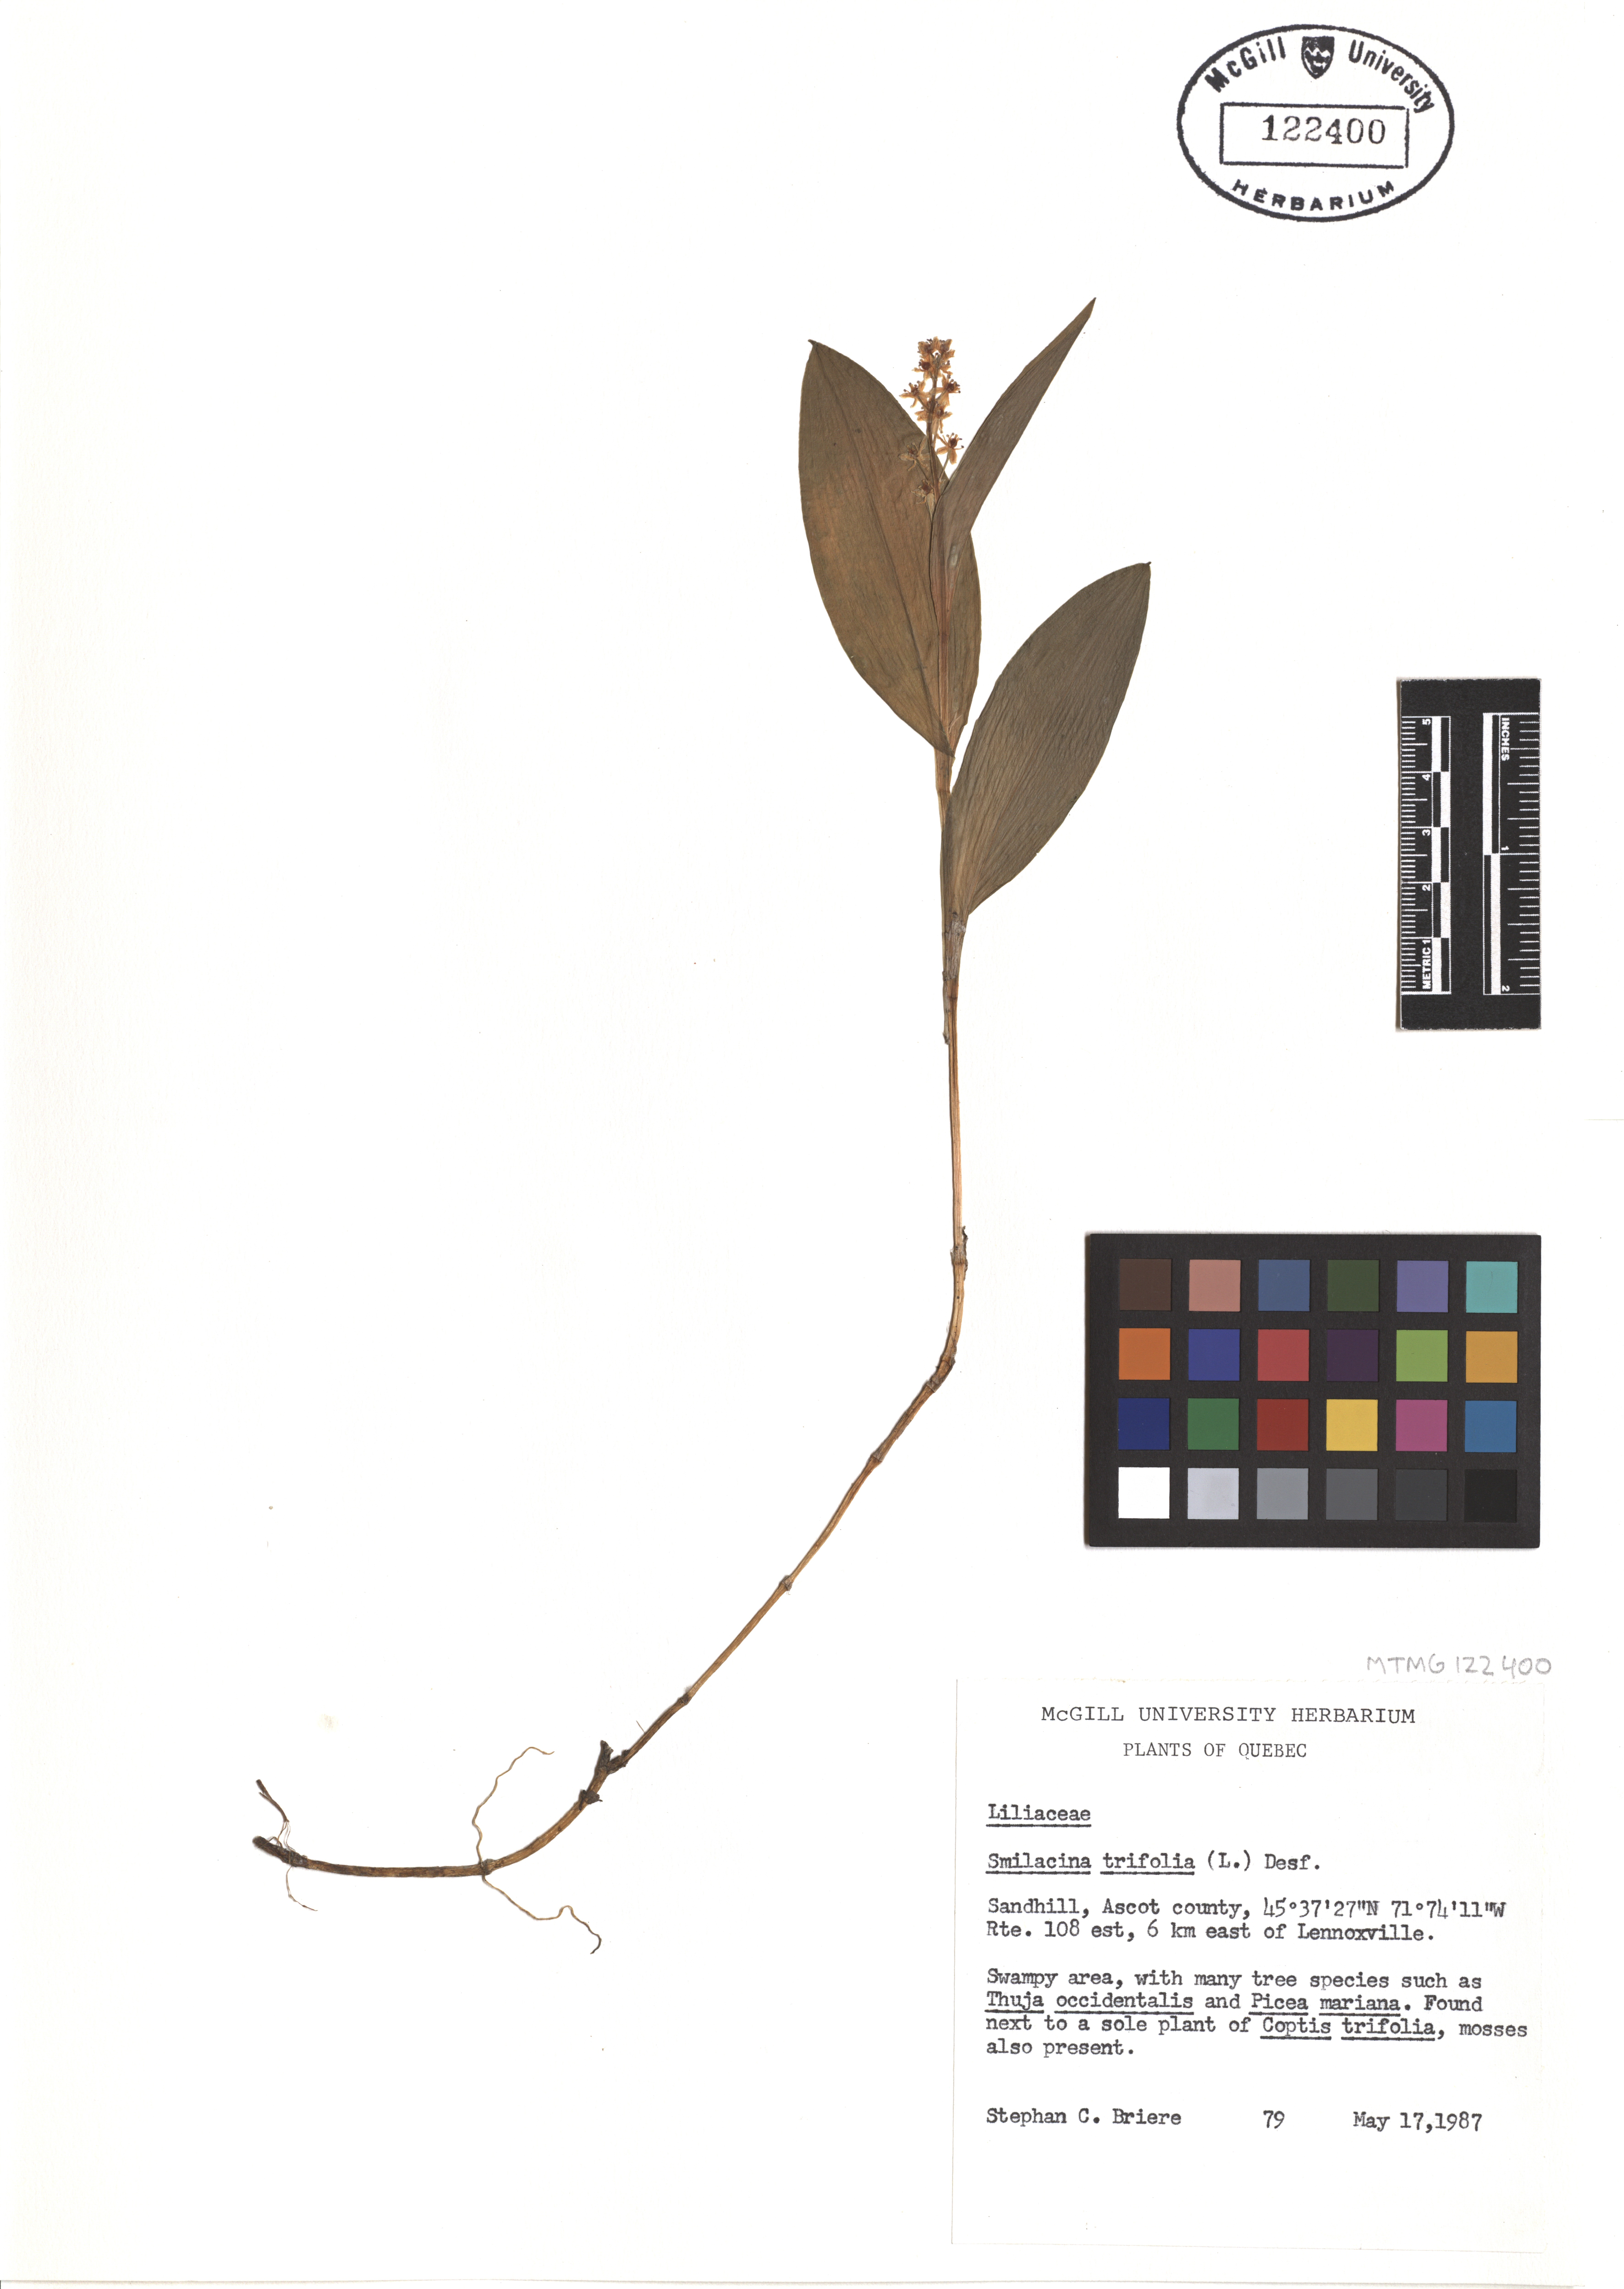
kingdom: Plantae
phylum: Tracheophyta
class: Liliopsida
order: Asparagales
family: Asparagaceae
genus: Maianthemum
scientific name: Maianthemum trifolium
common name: Swamp false solomon's seal
